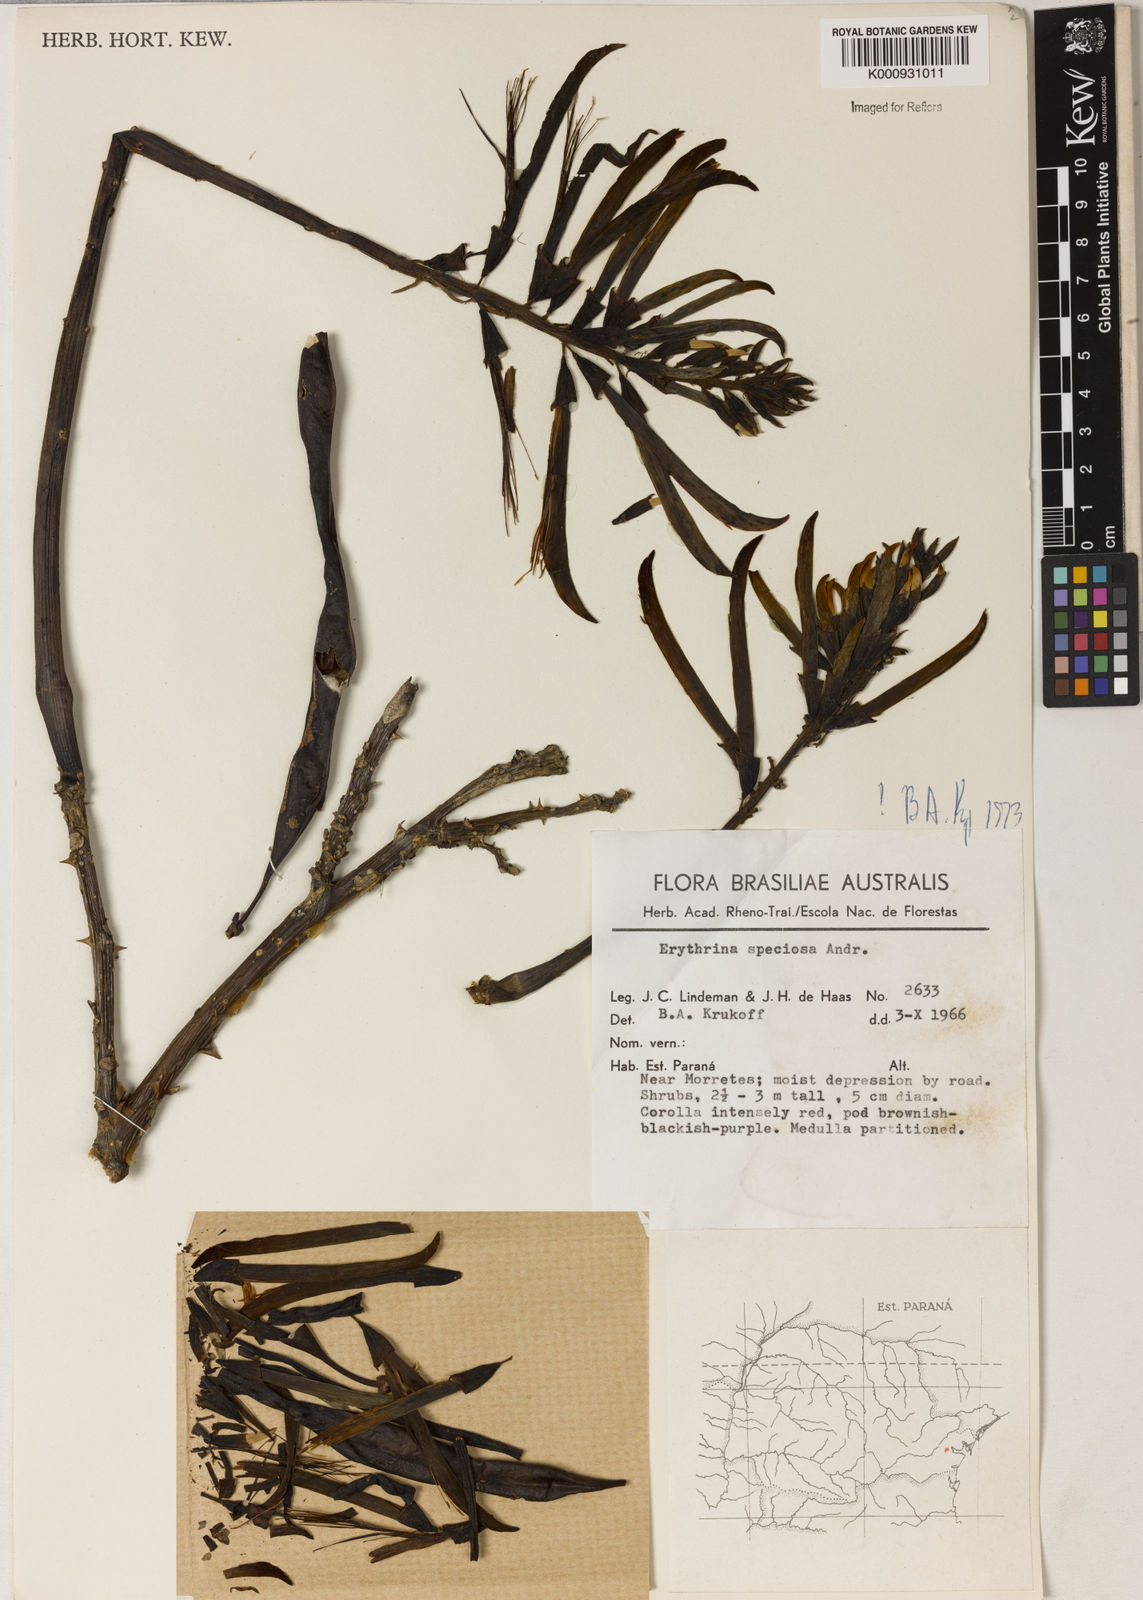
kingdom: Plantae
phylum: Tracheophyta
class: Magnoliopsida
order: Fabales
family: Fabaceae
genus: Erythrina
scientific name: Erythrina speciosa
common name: Coral tree
